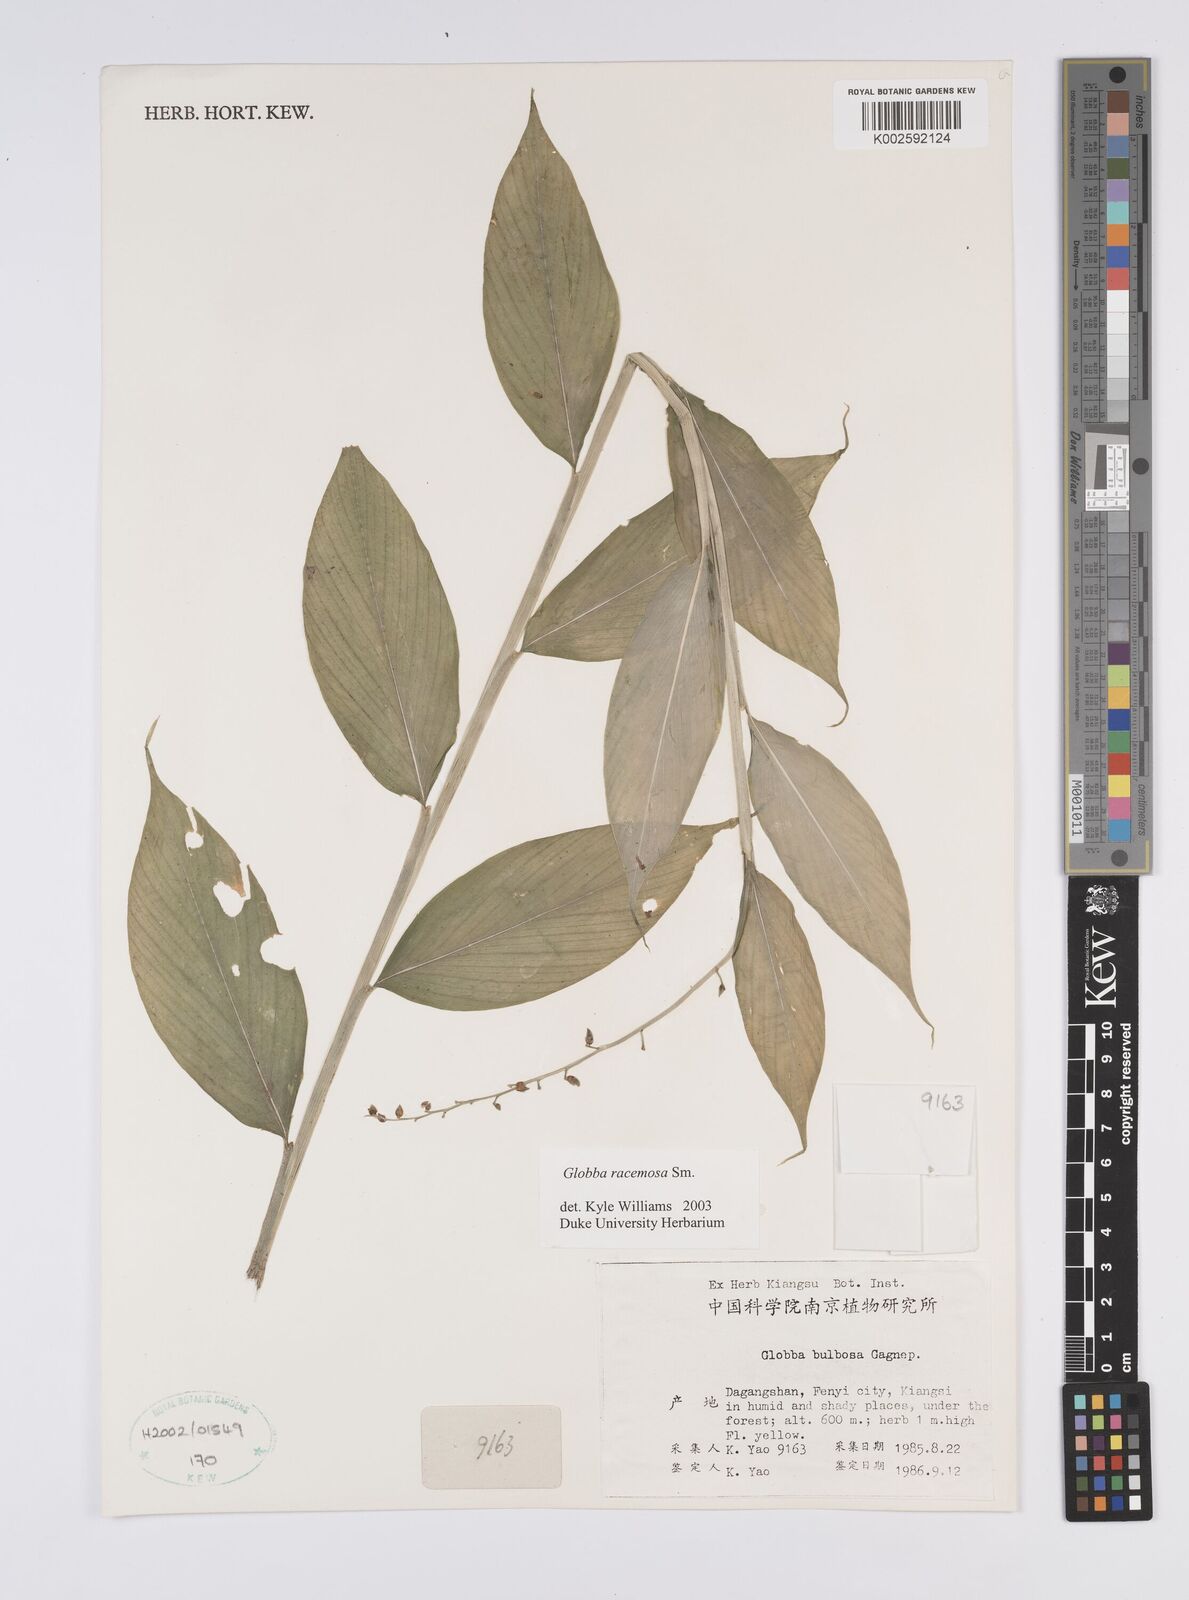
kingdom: Plantae
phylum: Tracheophyta
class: Liliopsida
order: Zingiberales
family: Zingiberaceae
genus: Globba
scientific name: Globba racemosa
